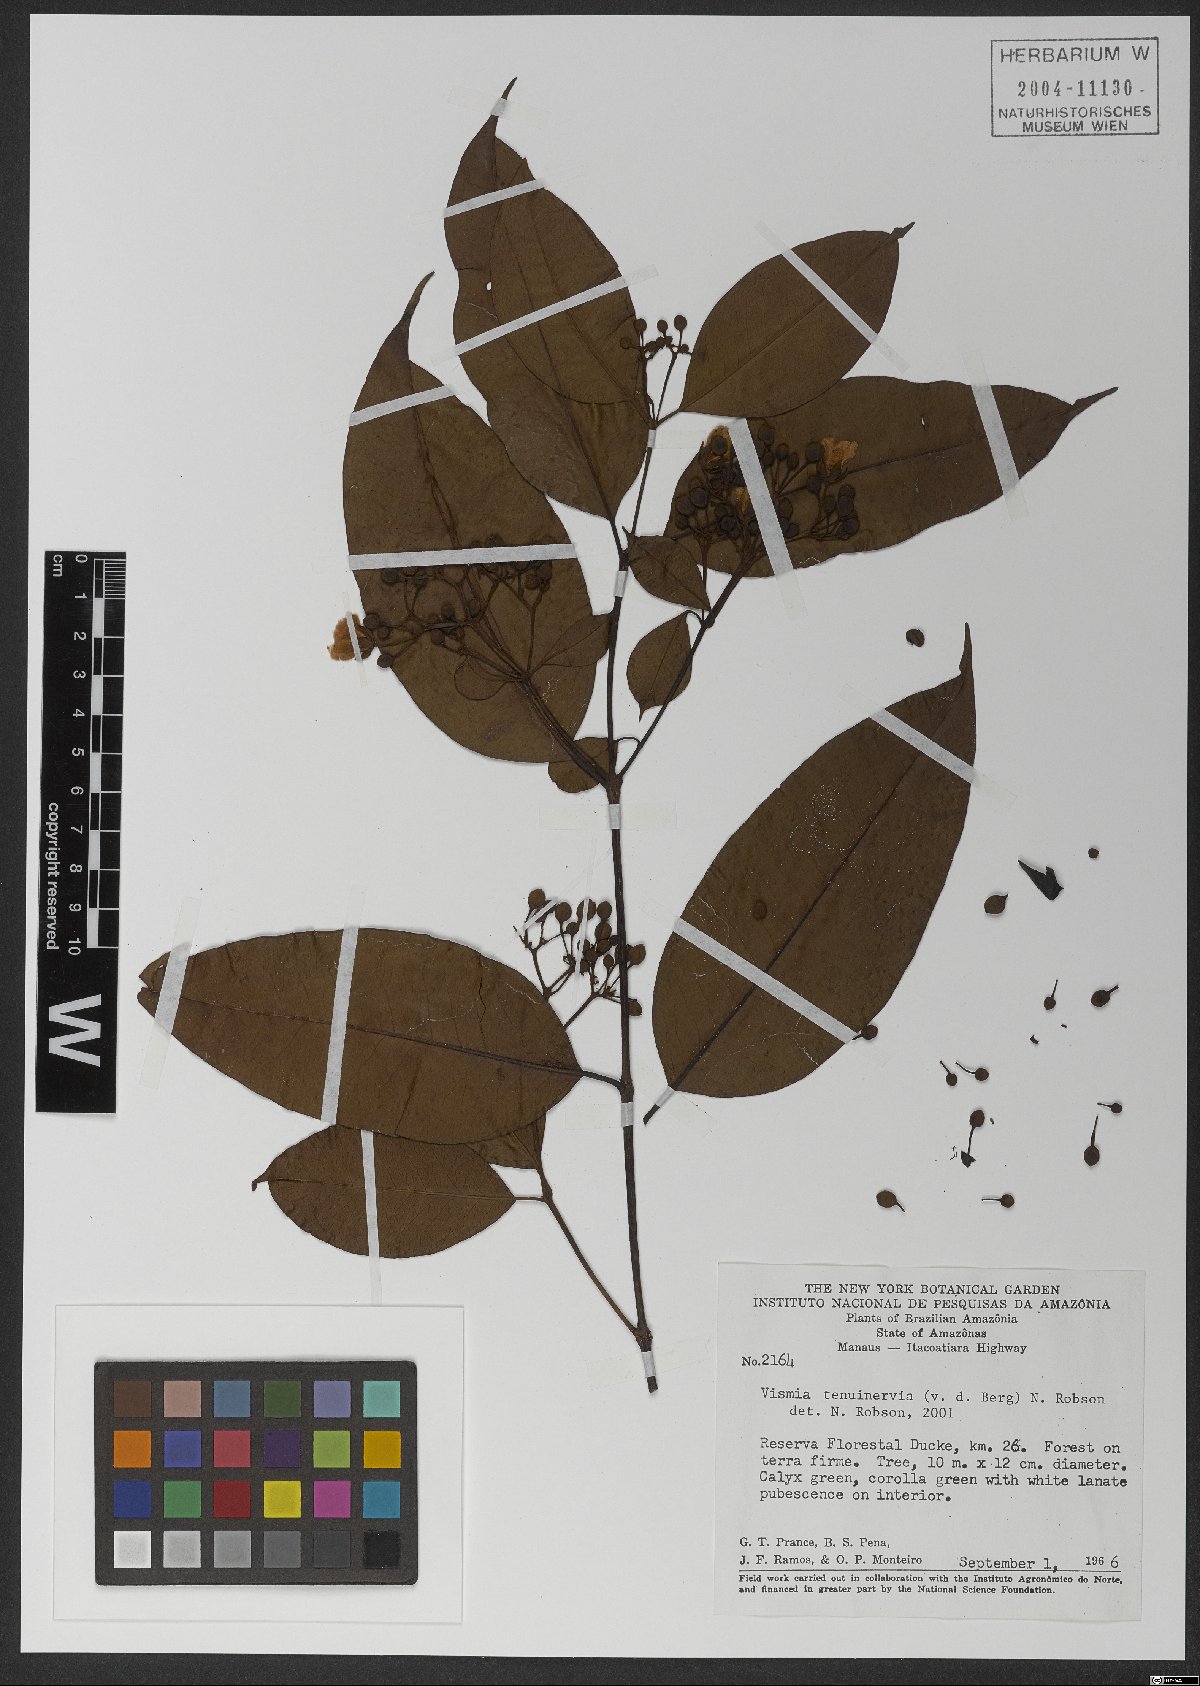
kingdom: Plantae
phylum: Tracheophyta
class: Magnoliopsida
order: Malpighiales
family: Hypericaceae
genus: Vismia
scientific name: Vismia cayennensis
